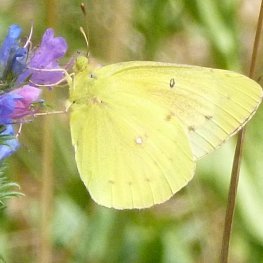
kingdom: Animalia
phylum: Arthropoda
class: Insecta
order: Lepidoptera
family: Pieridae
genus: Colias
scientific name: Colias philodice
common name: Clouded Sulphur
